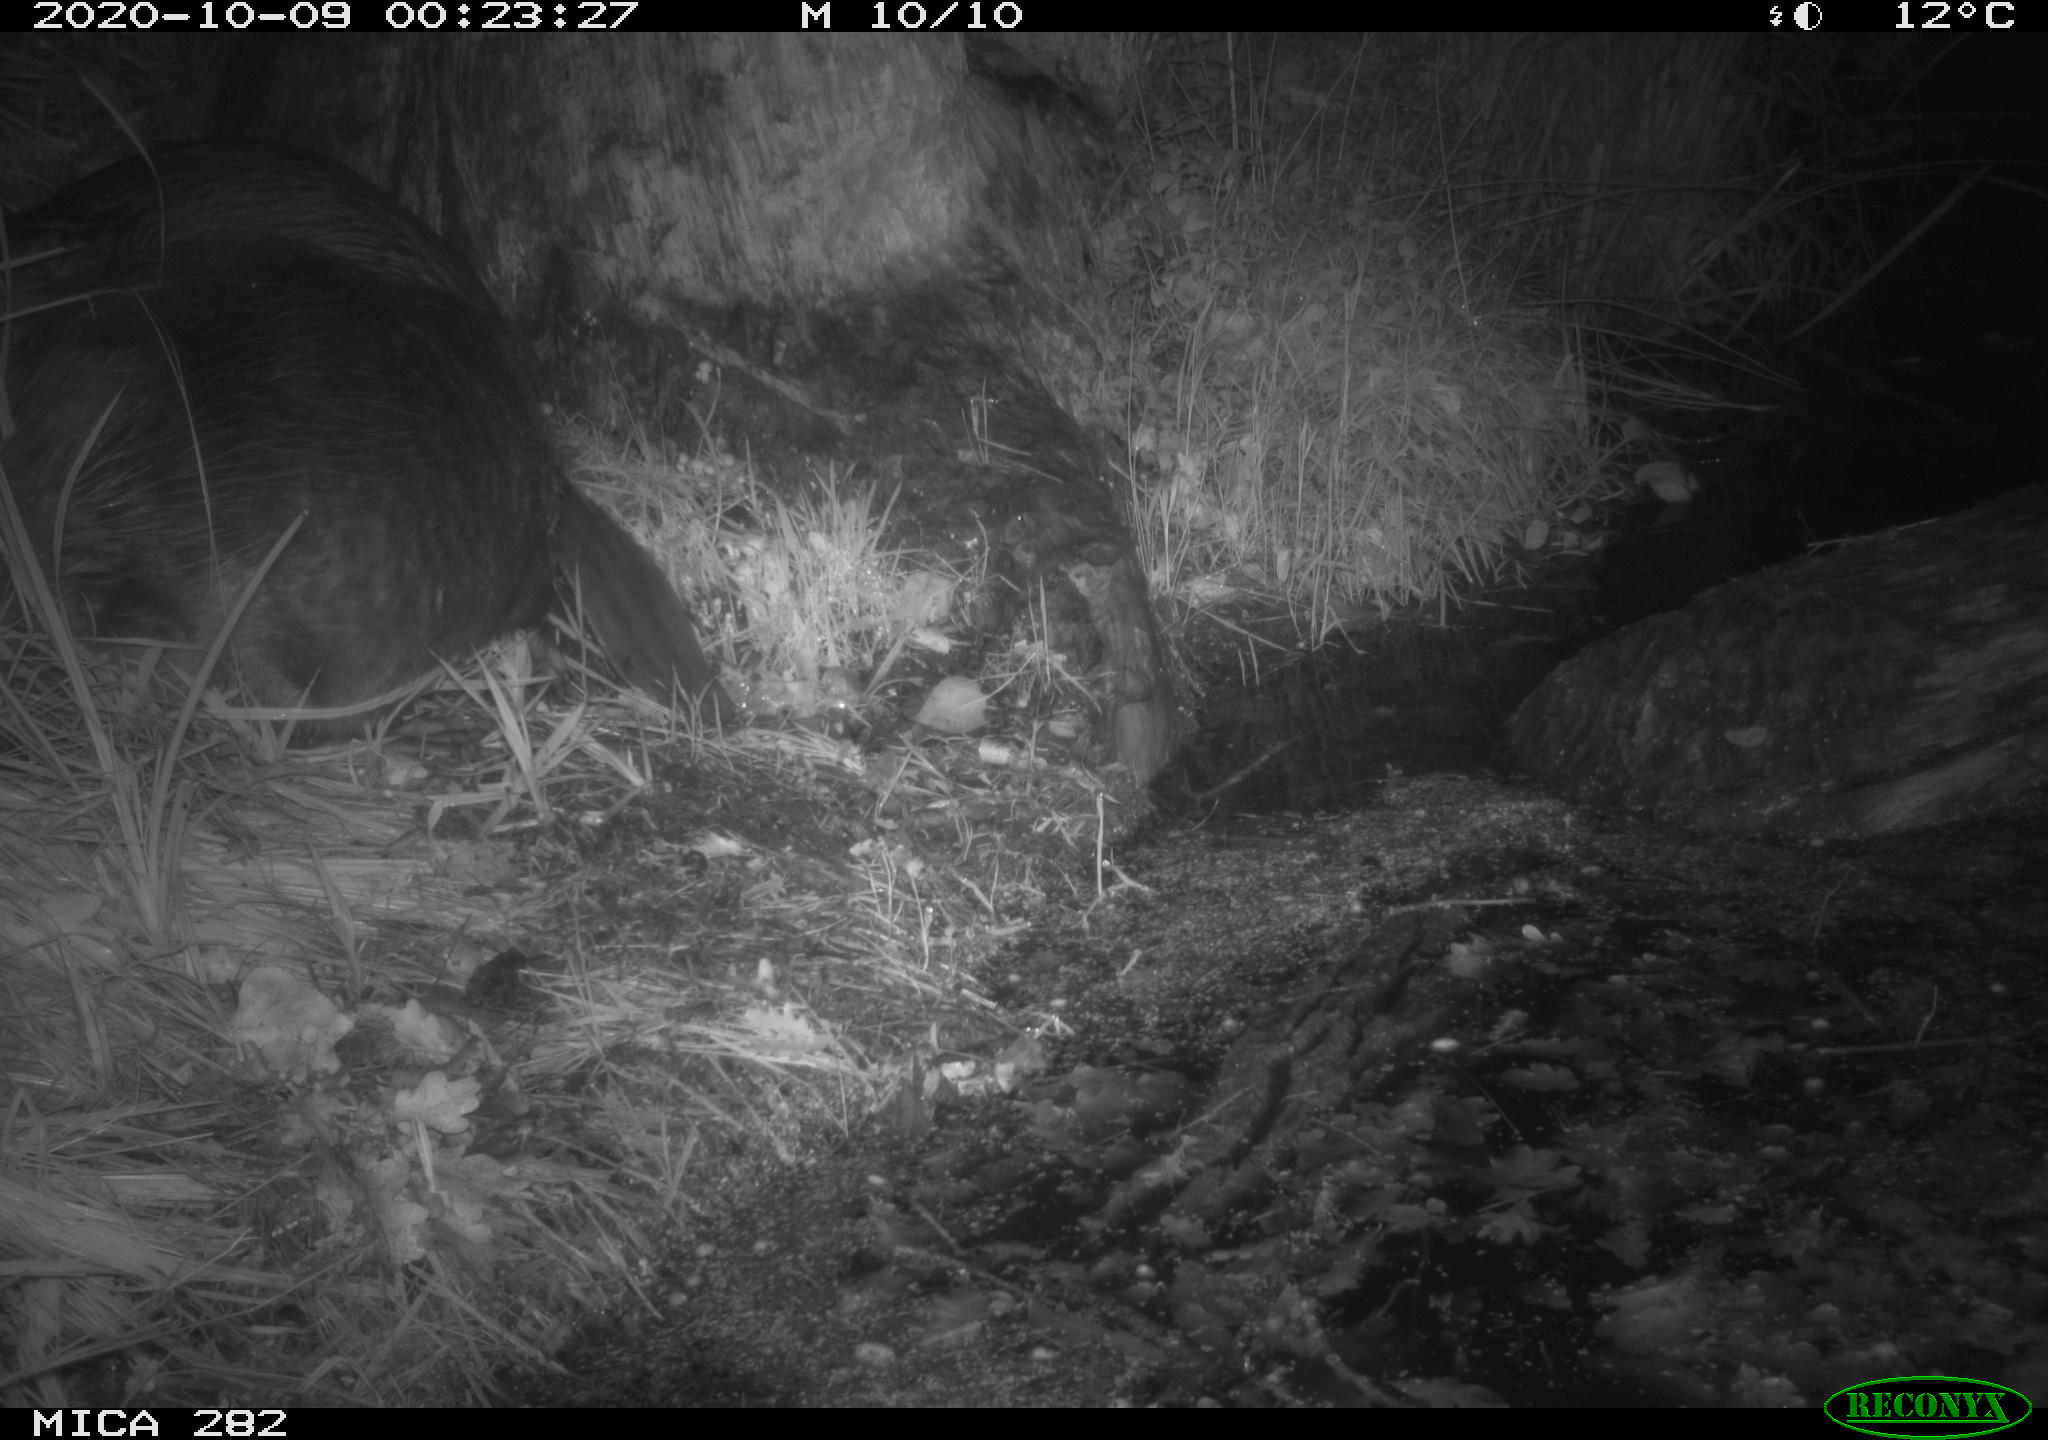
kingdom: Animalia
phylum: Chordata
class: Mammalia
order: Rodentia
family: Castoridae
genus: Castor
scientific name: Castor fiber
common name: Eurasian beaver
